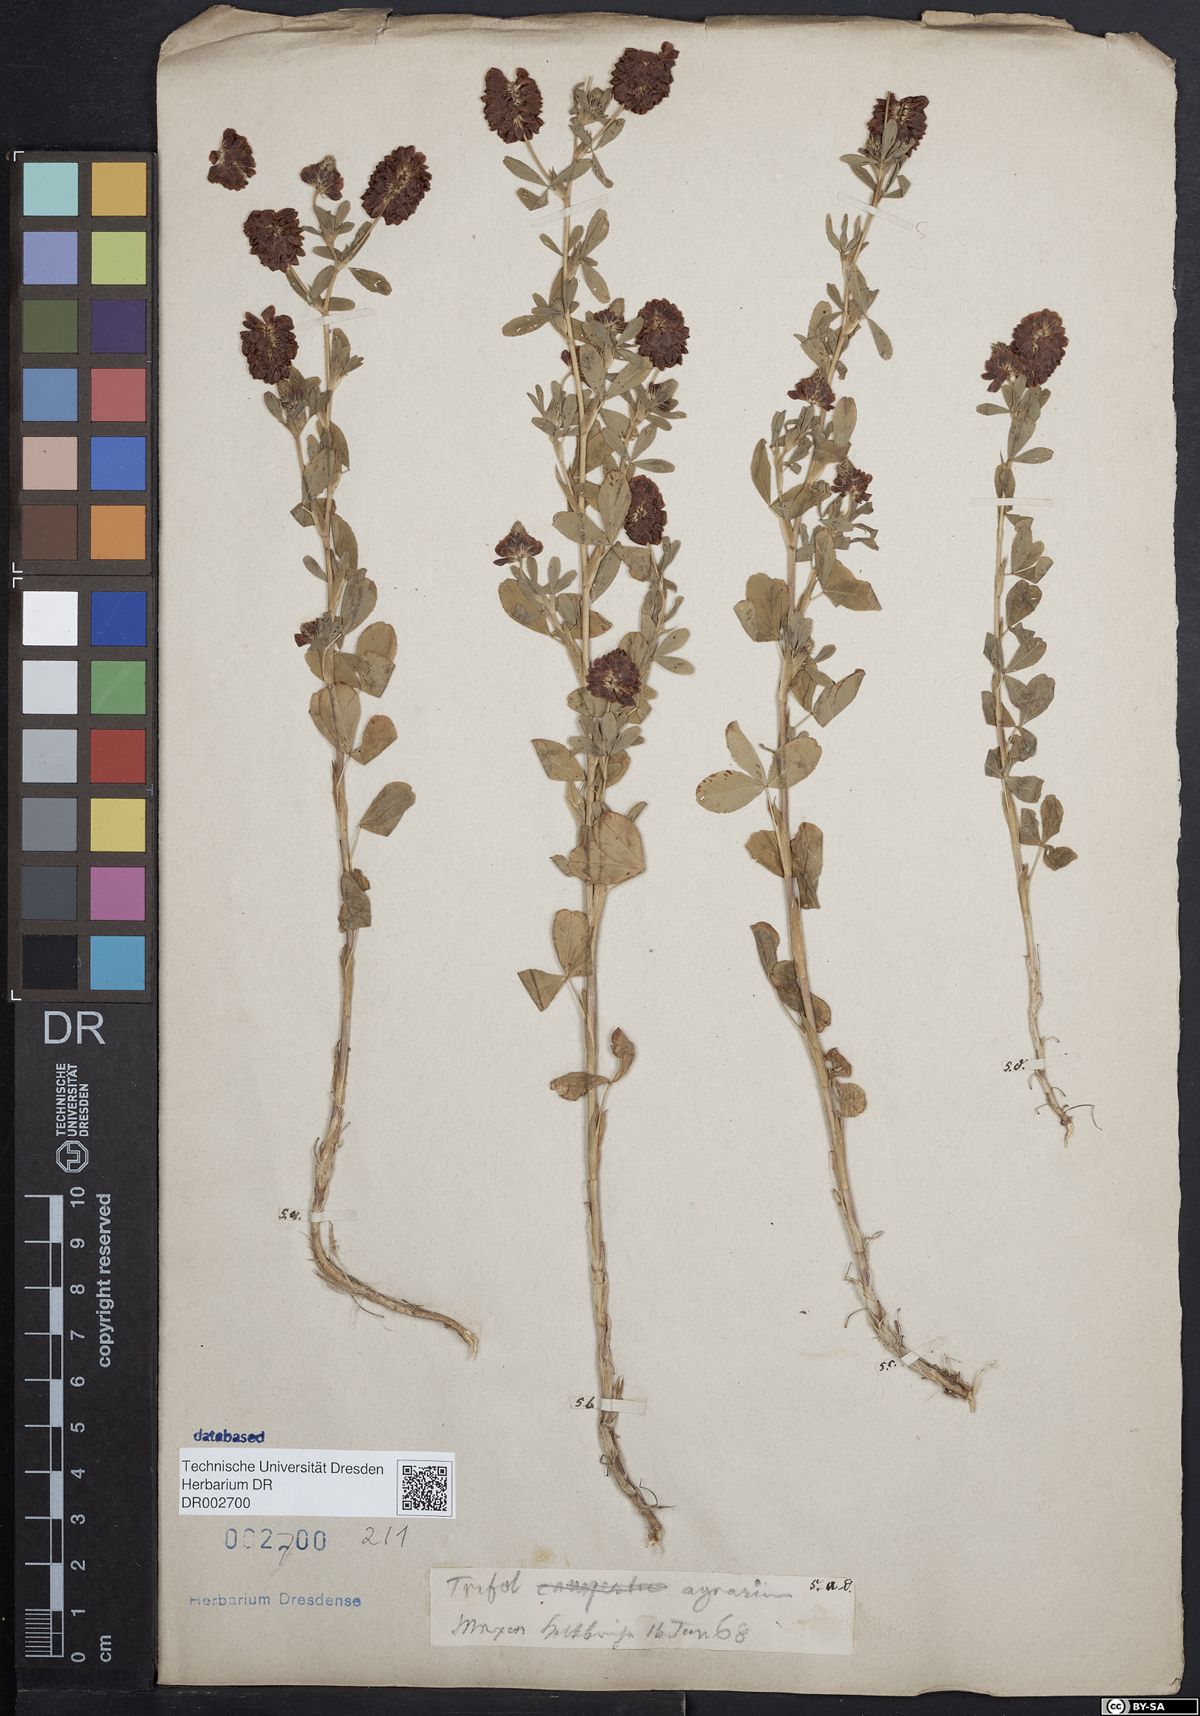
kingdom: Plantae
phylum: Tracheophyta
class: Magnoliopsida
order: Fabales
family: Fabaceae
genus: Trifolium
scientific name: Trifolium aureum
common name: Golden clover
